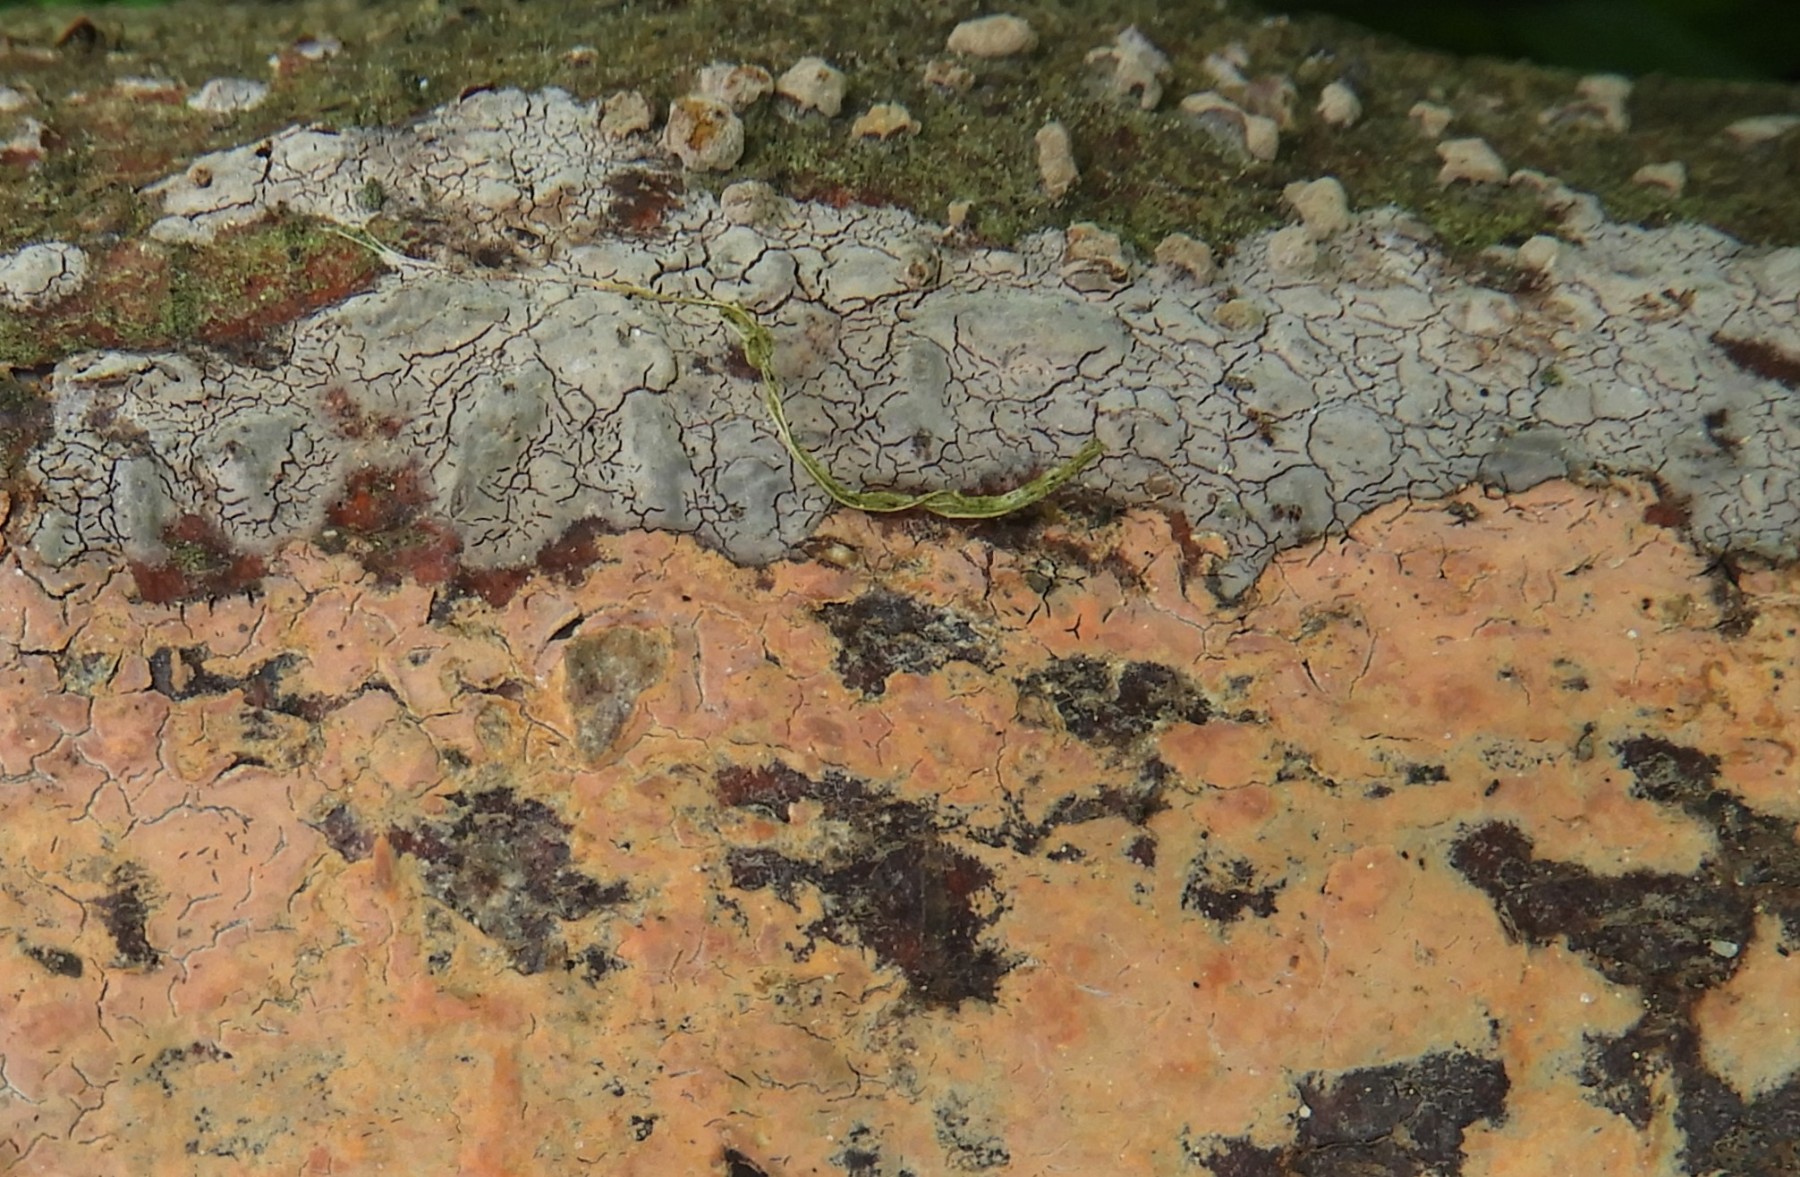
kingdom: Fungi
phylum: Basidiomycota
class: Agaricomycetes
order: Corticiales
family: Corticiaceae
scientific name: Corticiaceae
